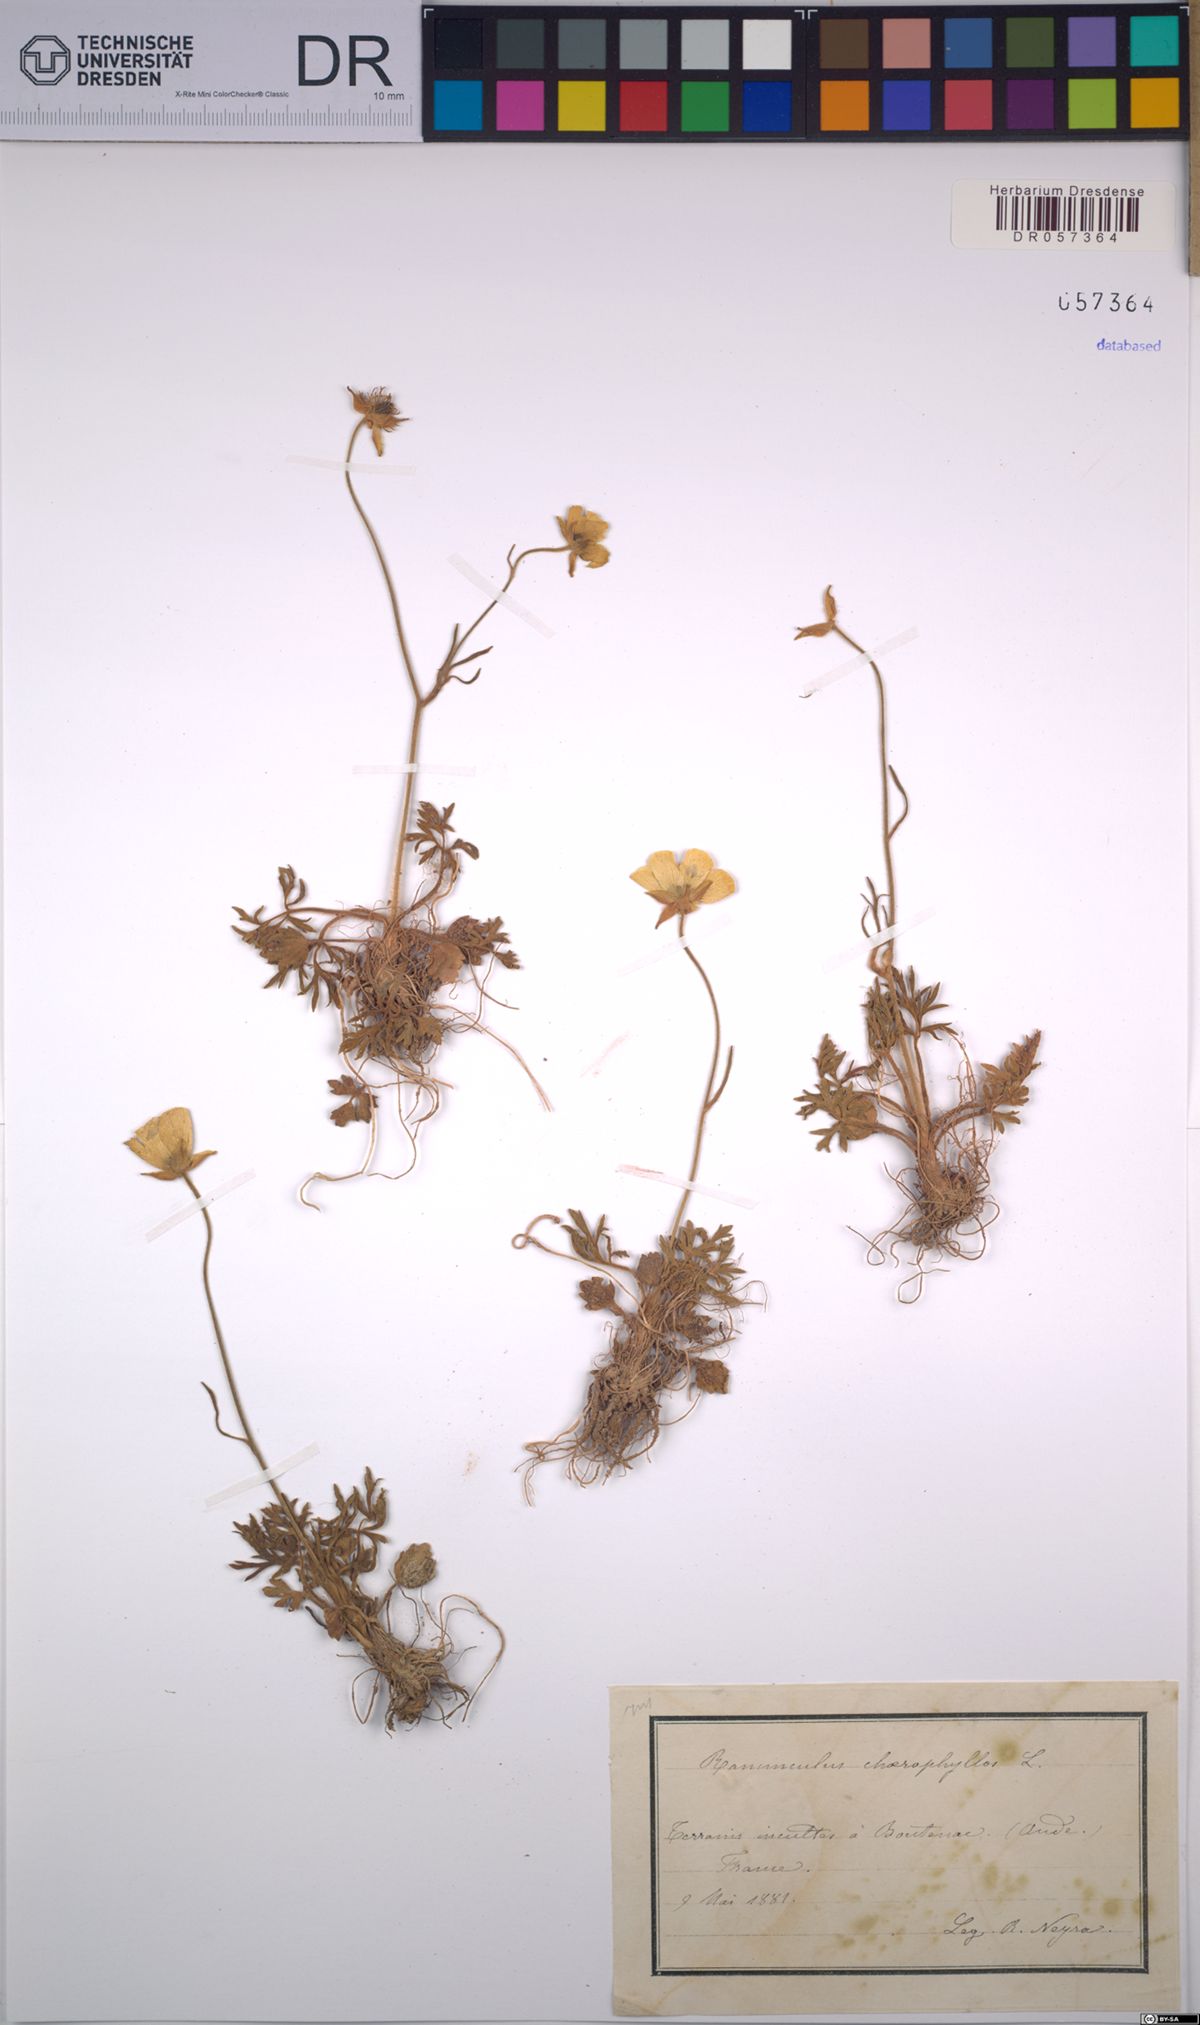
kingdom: Plantae
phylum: Tracheophyta
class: Magnoliopsida
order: Ranunculales
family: Ranunculaceae
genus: Ranunculus
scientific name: Ranunculus chaerophyllos
